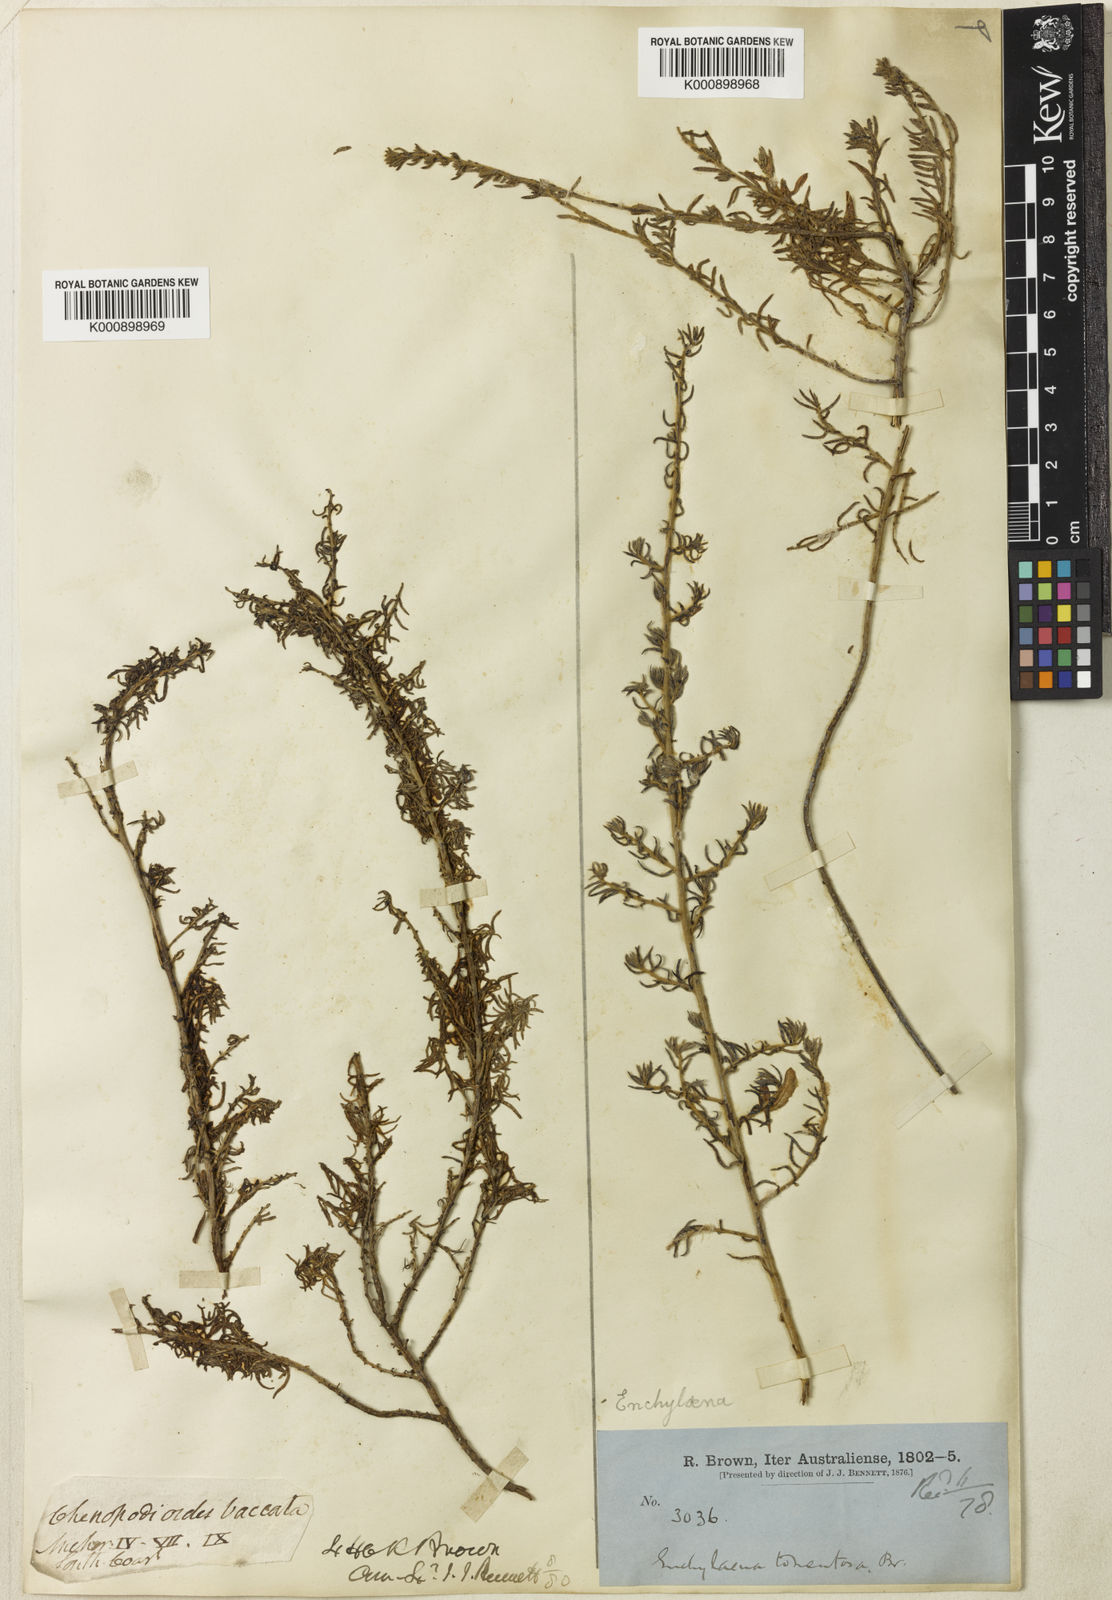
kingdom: Plantae
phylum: Tracheophyta
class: Magnoliopsida
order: Caryophyllales
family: Amaranthaceae
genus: Maireana
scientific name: Maireana tomentosa
